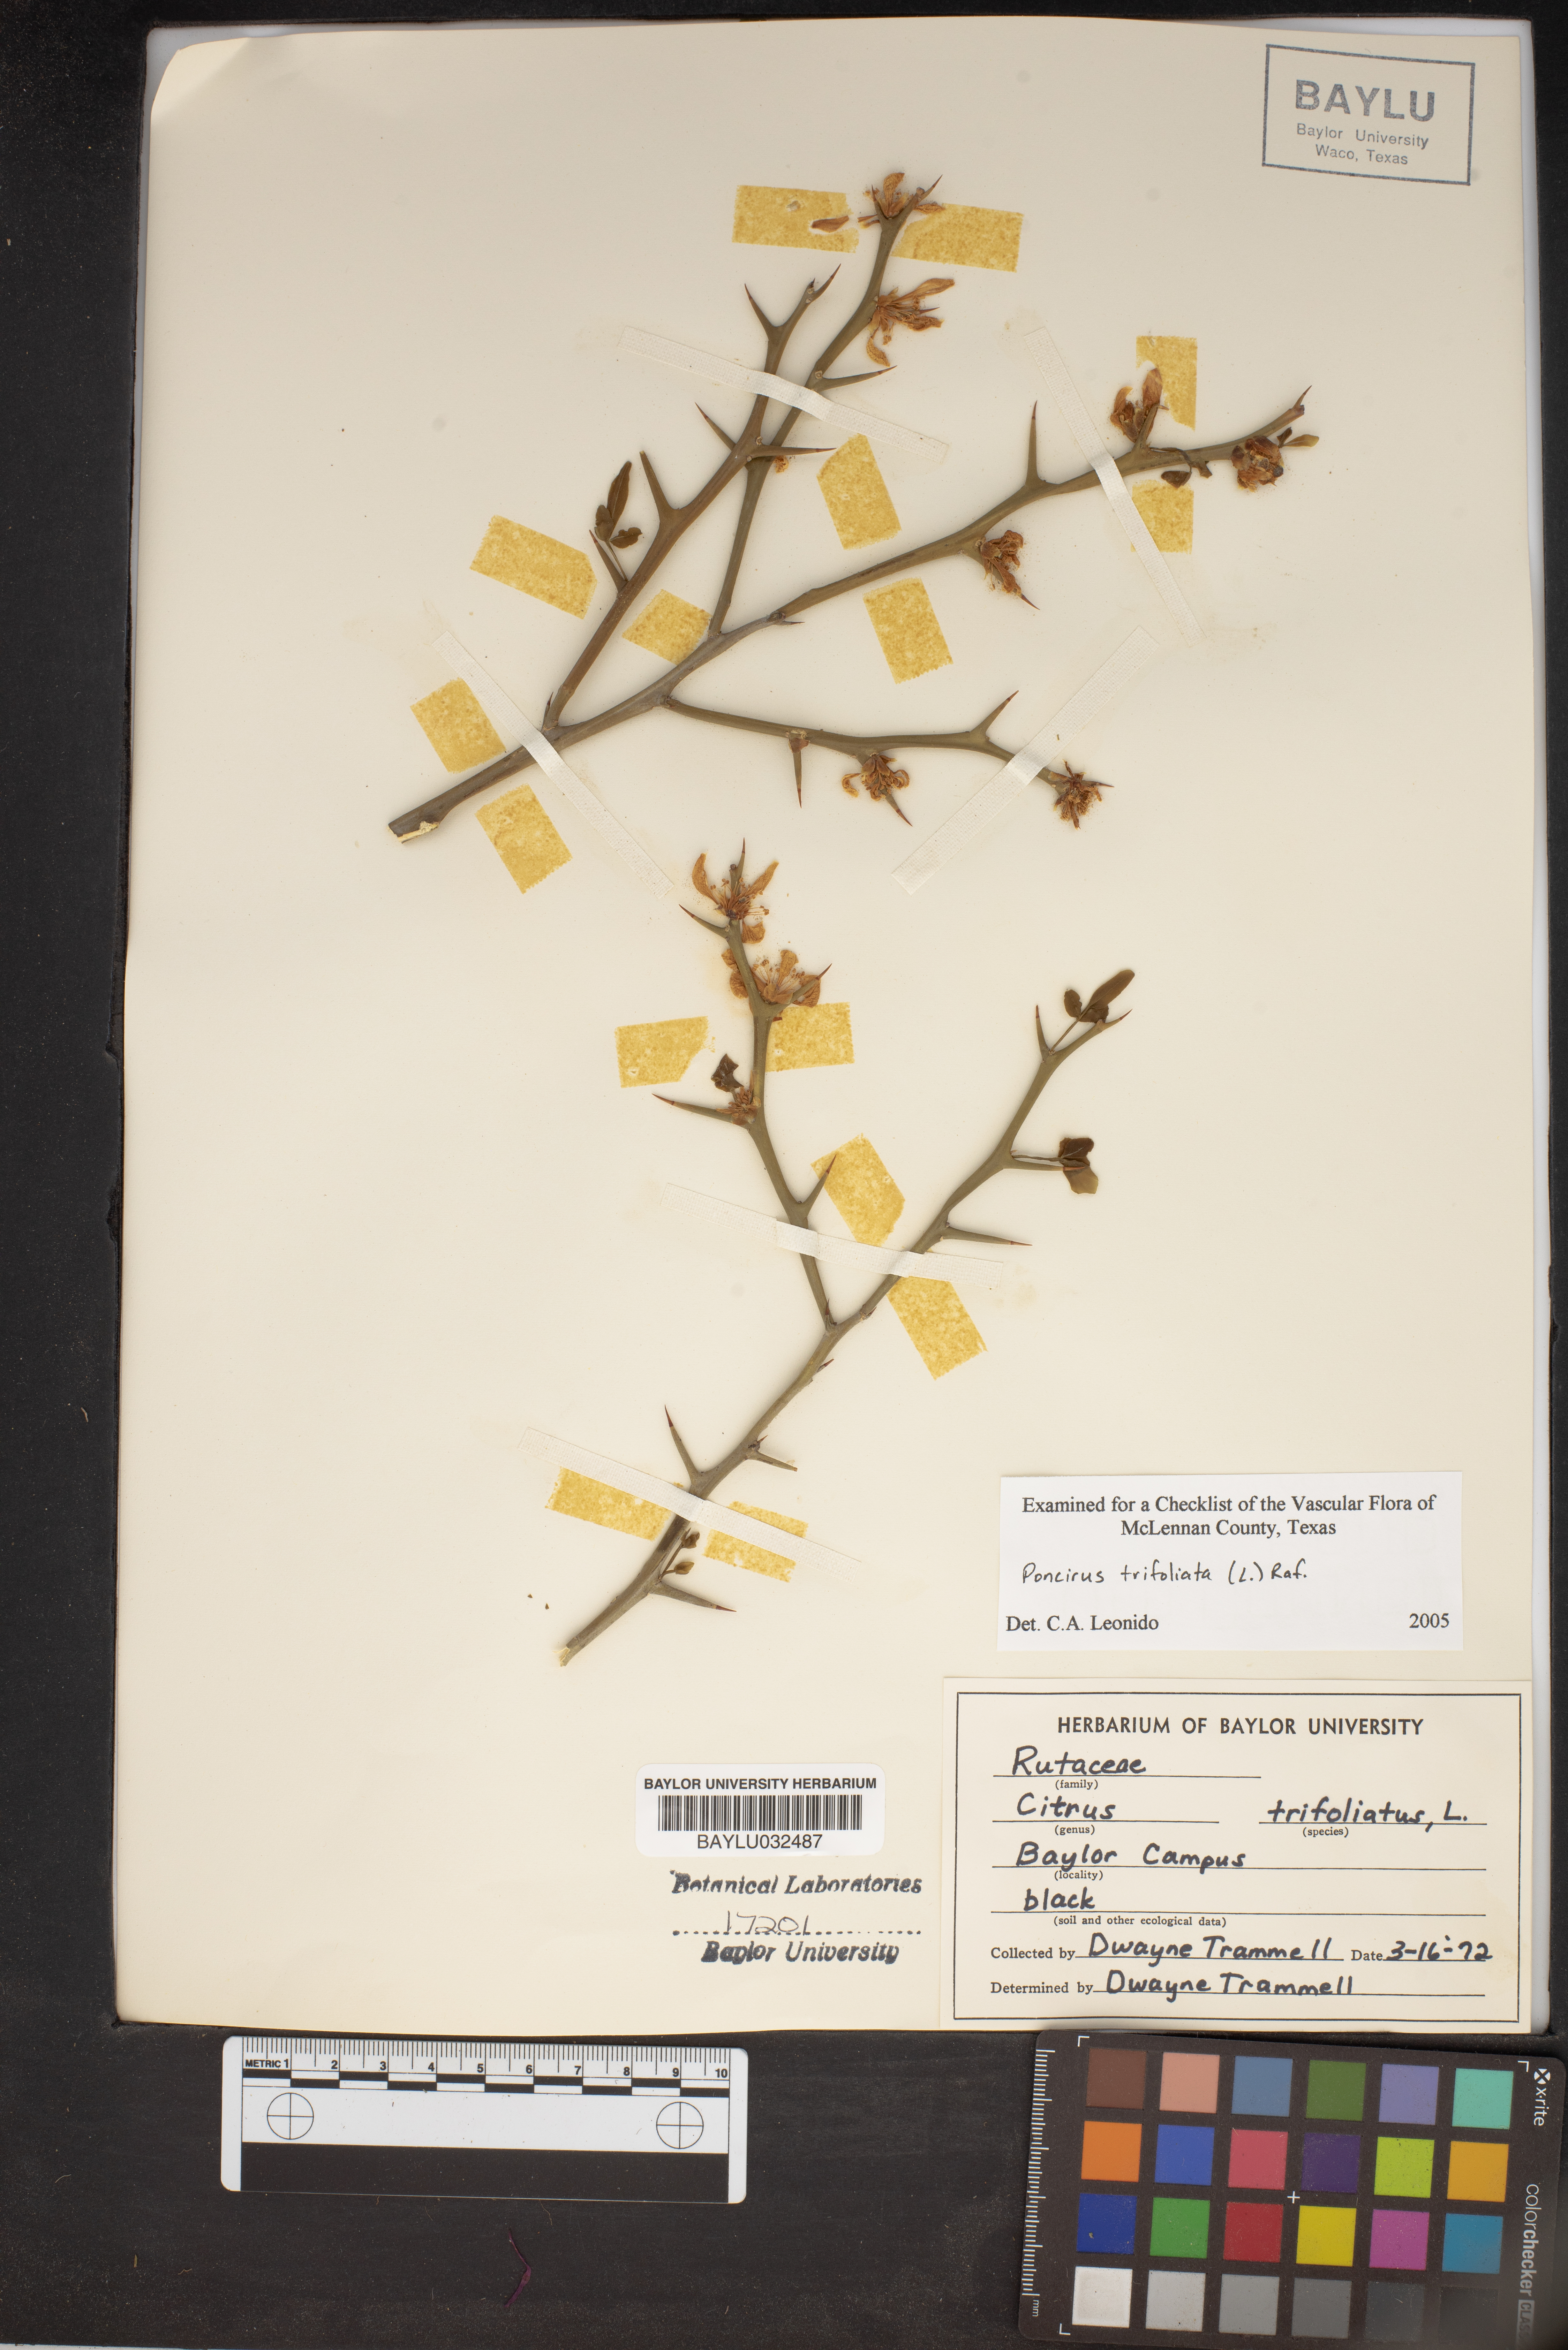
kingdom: Plantae
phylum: Tracheophyta
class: Magnoliopsida
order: Sapindales
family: Rutaceae
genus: Citrus
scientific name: Citrus trifoliata
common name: Japanese bitter-orange
